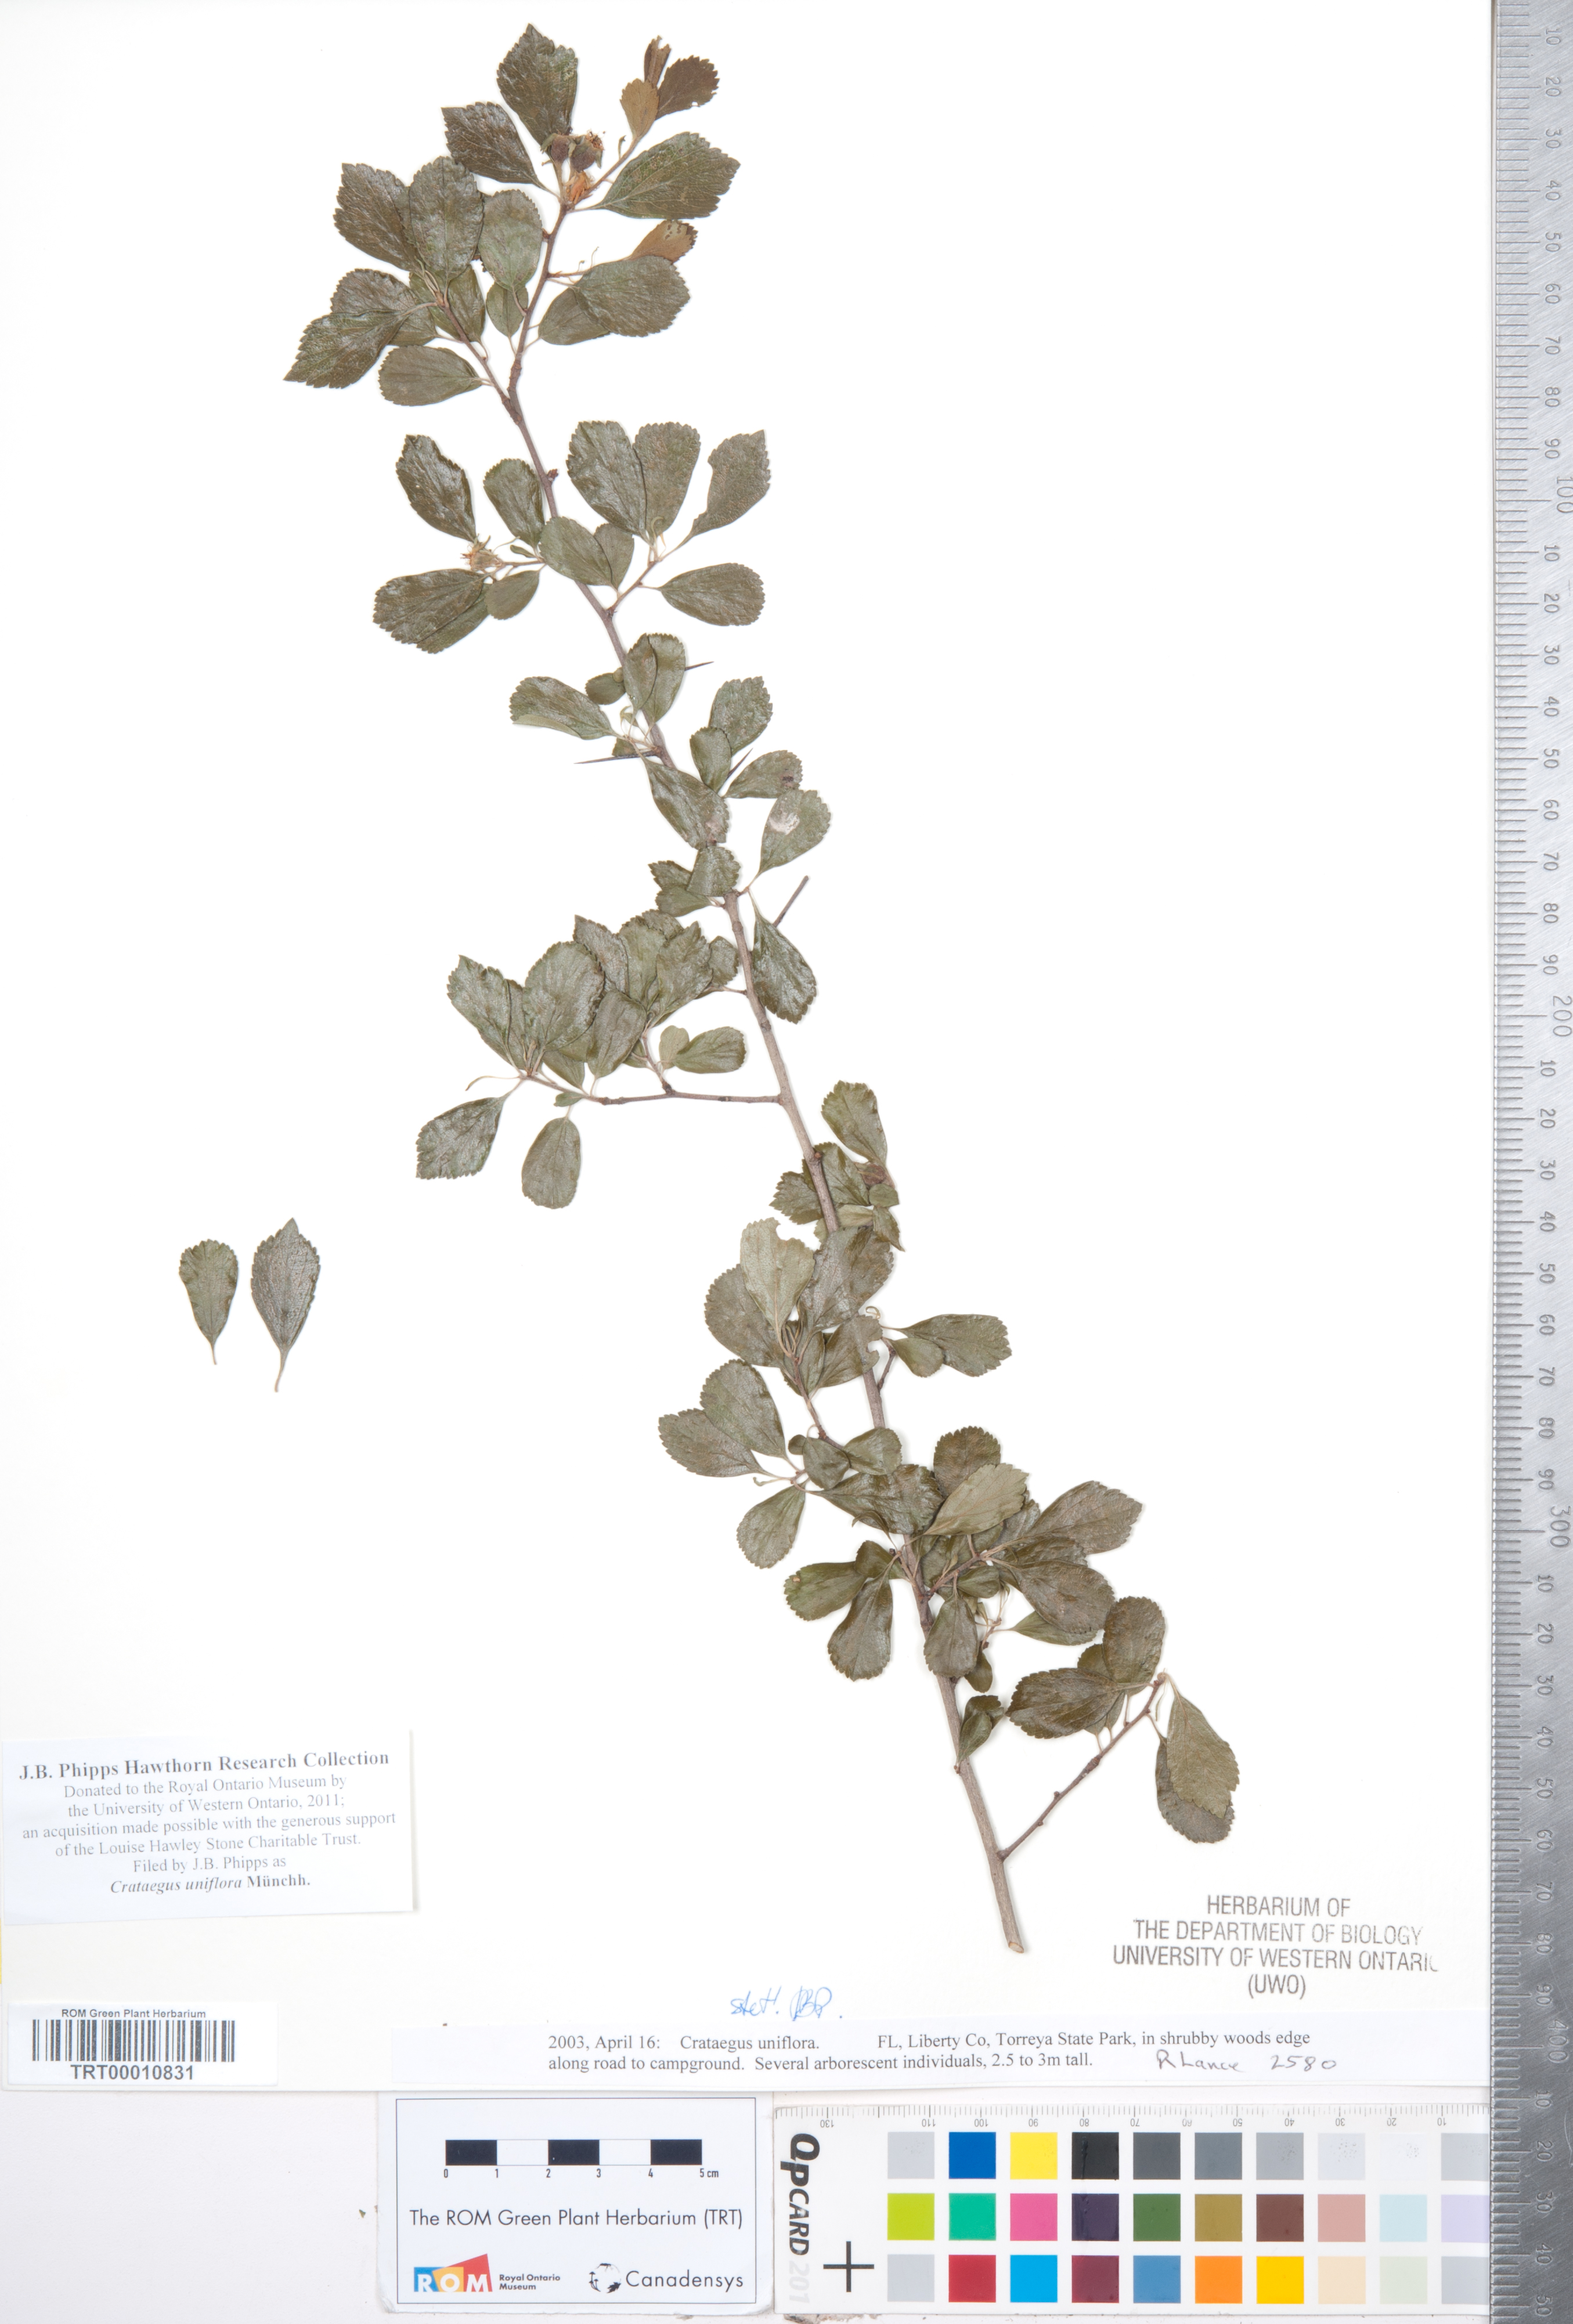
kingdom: Plantae
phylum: Tracheophyta
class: Magnoliopsida
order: Rosales
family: Rosaceae
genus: Crataegus
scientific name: Crataegus uniflora
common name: One-flower hawthorn
